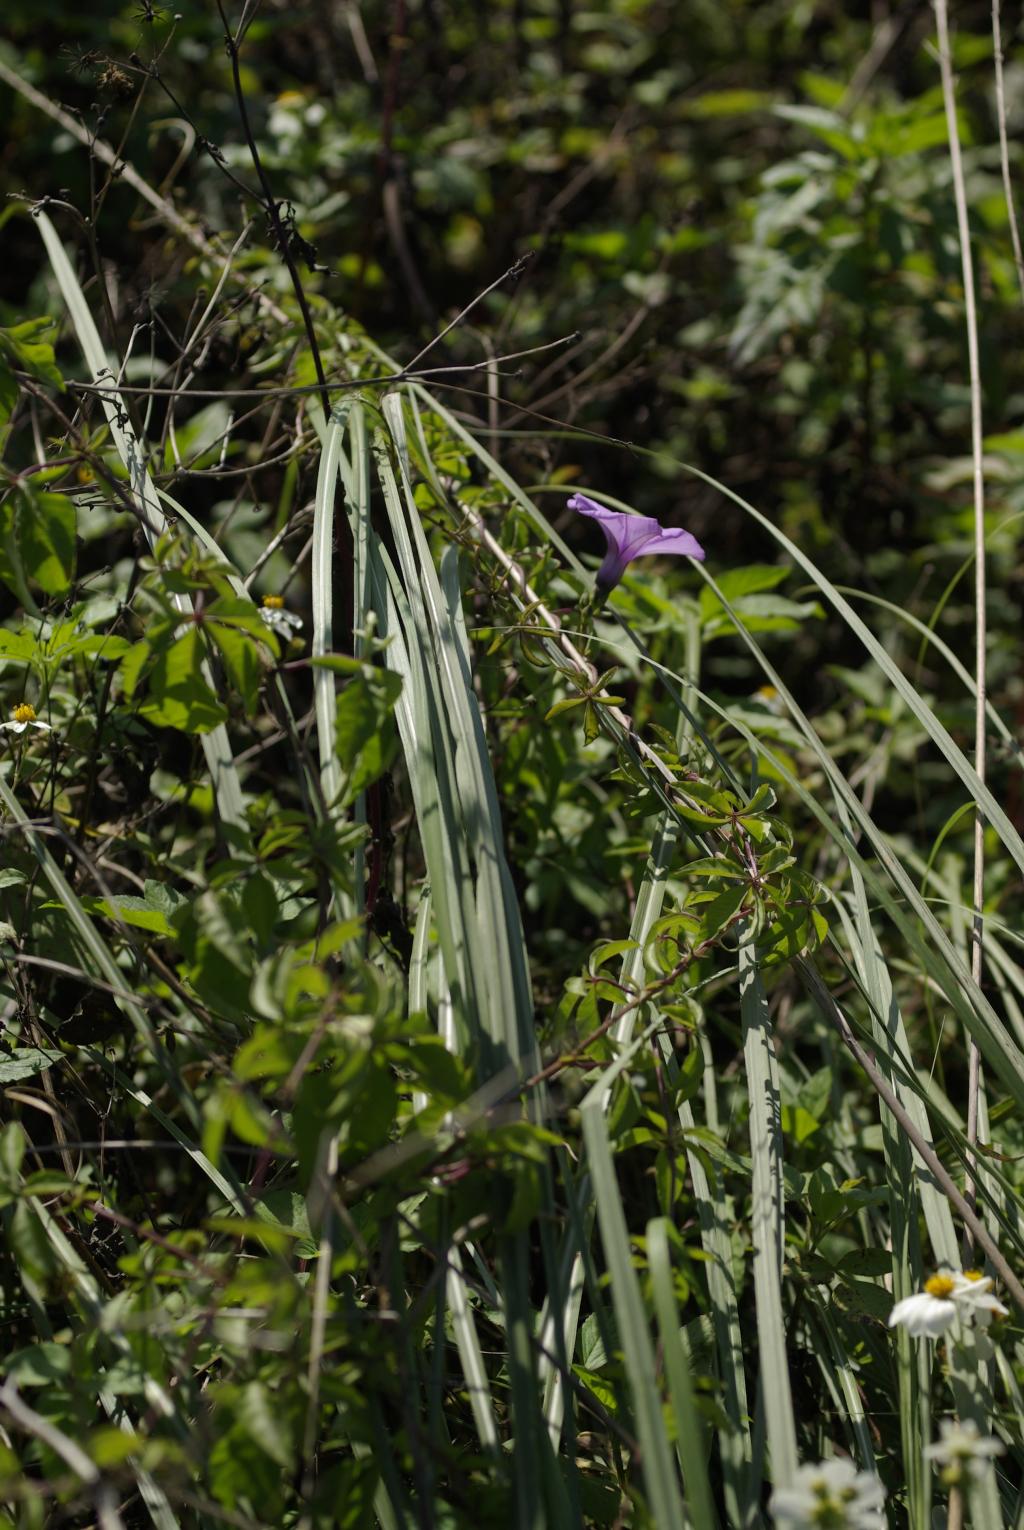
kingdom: Plantae
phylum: Tracheophyta
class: Magnoliopsida
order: Solanales
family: Convolvulaceae
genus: Ipomoea
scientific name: Ipomoea cairica
